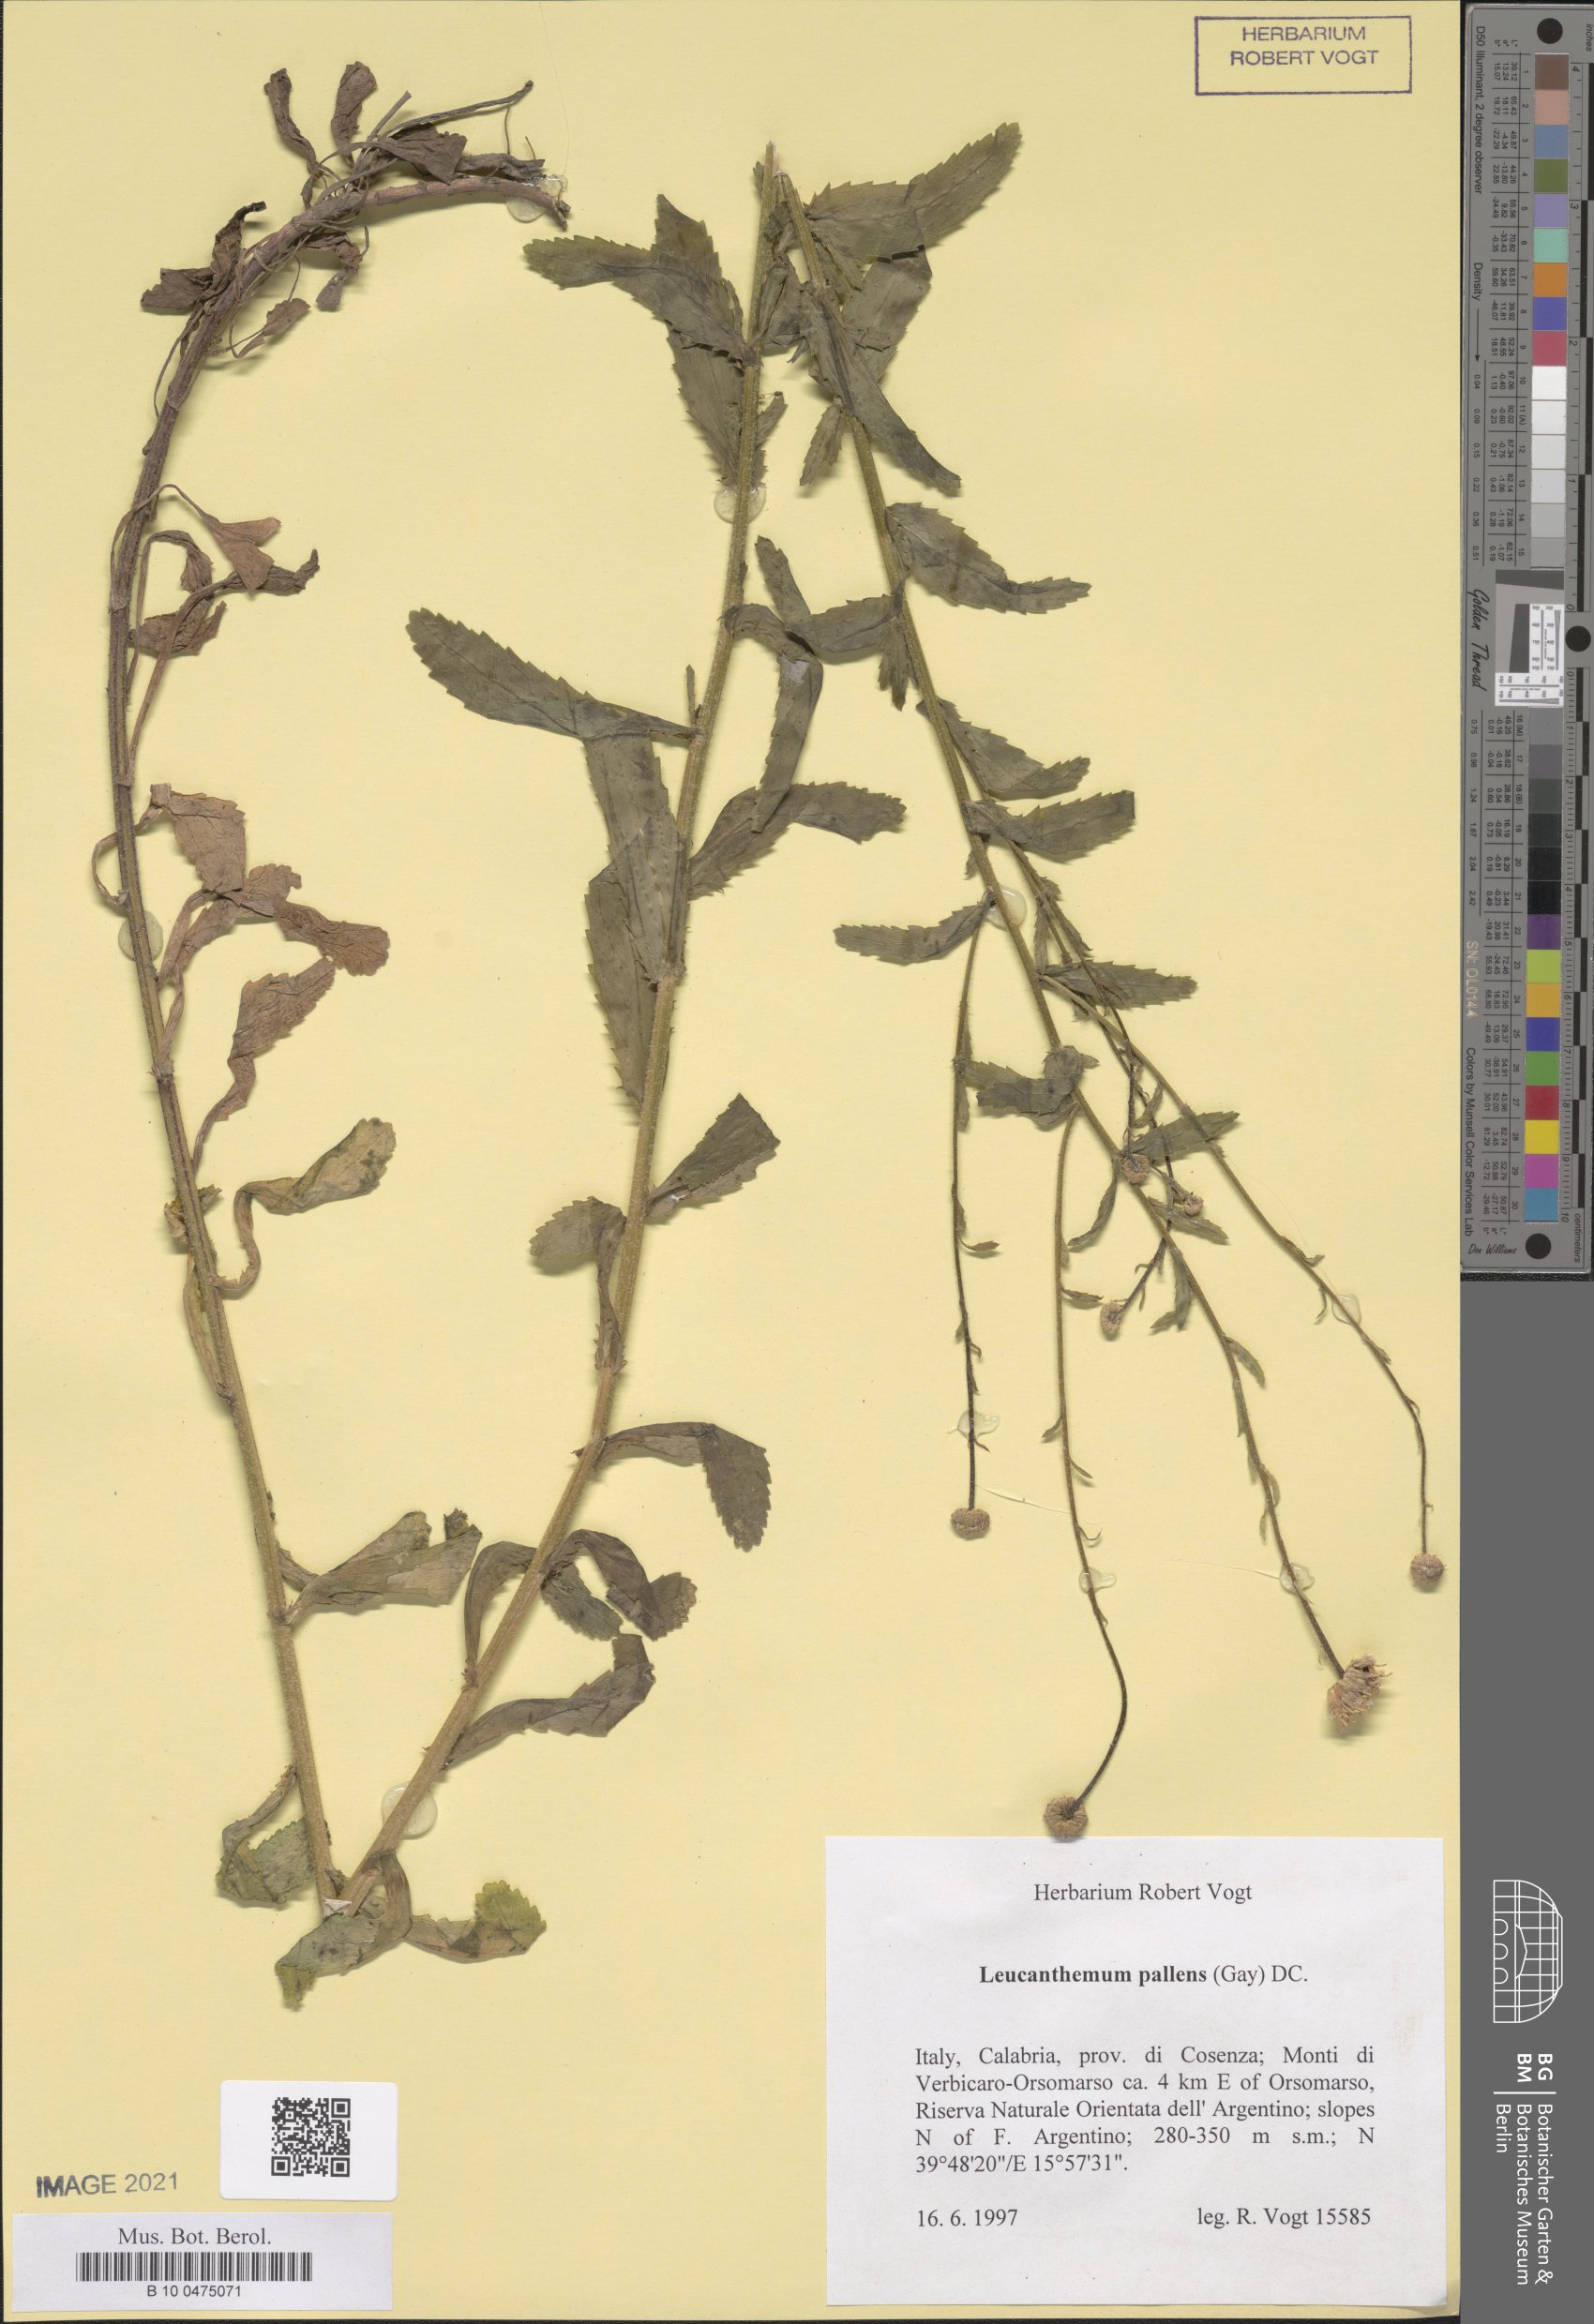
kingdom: Plantae
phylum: Tracheophyta
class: Magnoliopsida
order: Asterales
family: Asteraceae
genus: Leucanthemum
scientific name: Leucanthemum ircutianum
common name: Daisy
